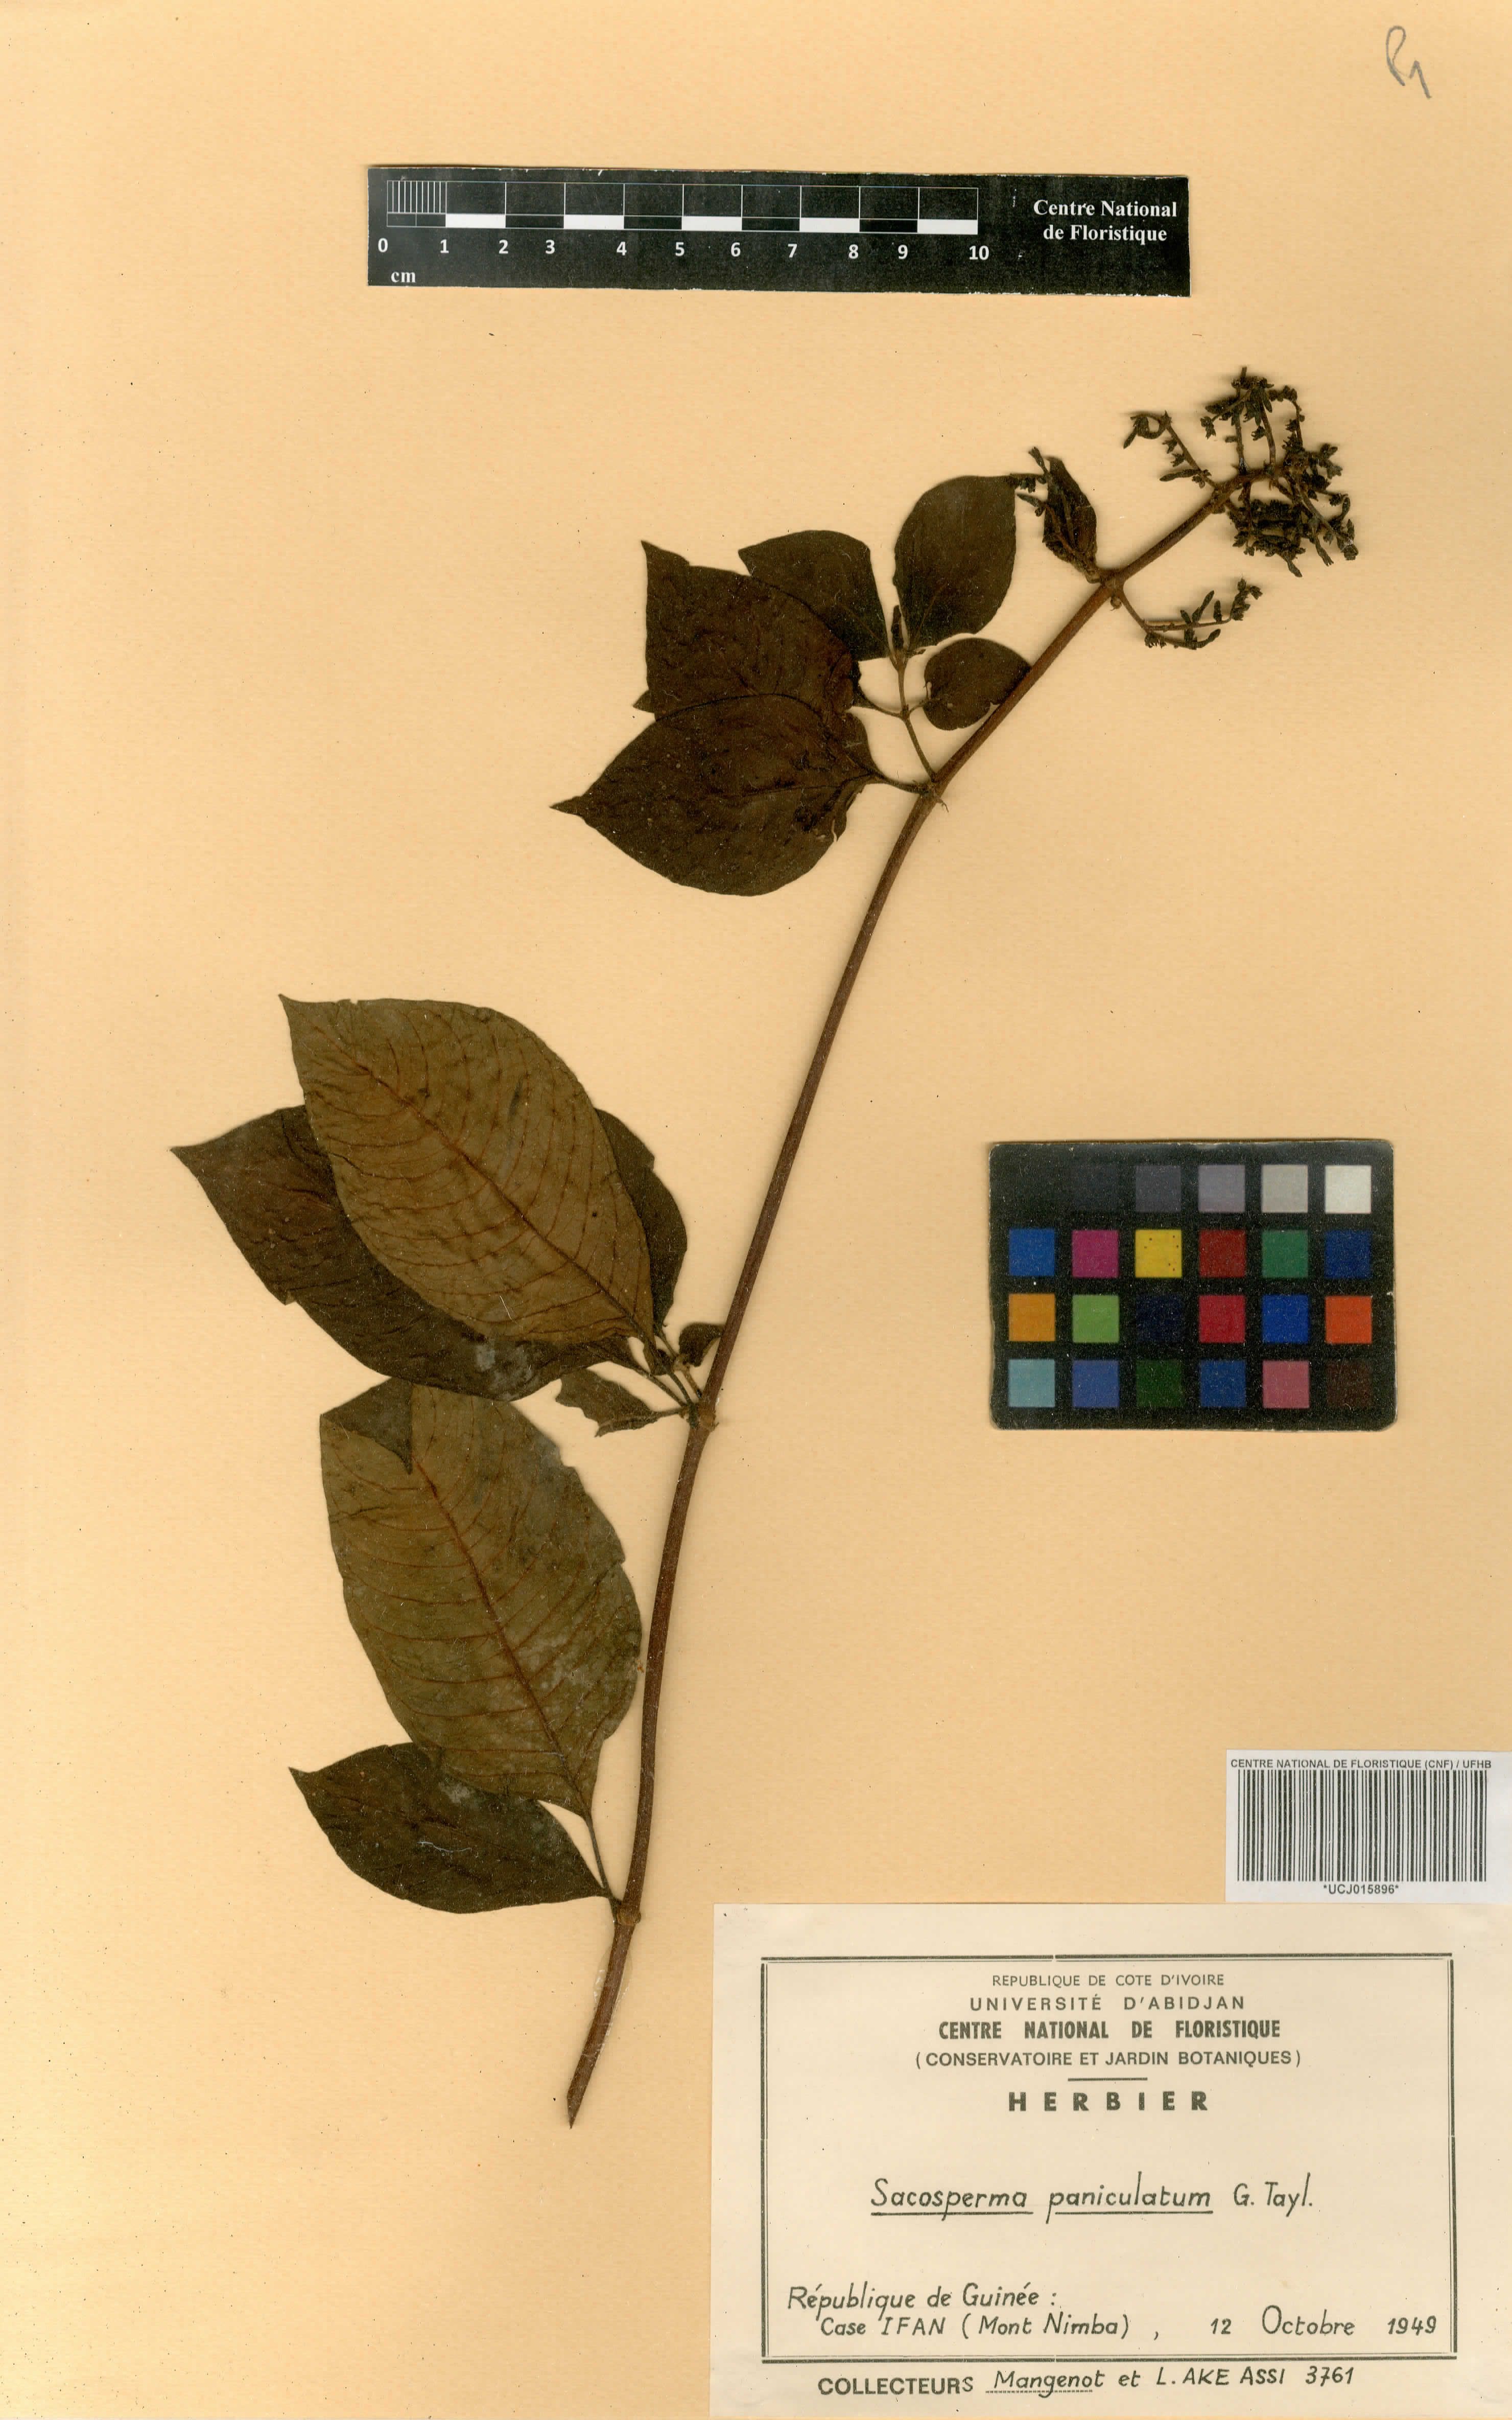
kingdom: Plantae
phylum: Tracheophyta
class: Magnoliopsida
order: Gentianales
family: Rubiaceae
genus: Sacosperma
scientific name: Sacosperma paniculatum
